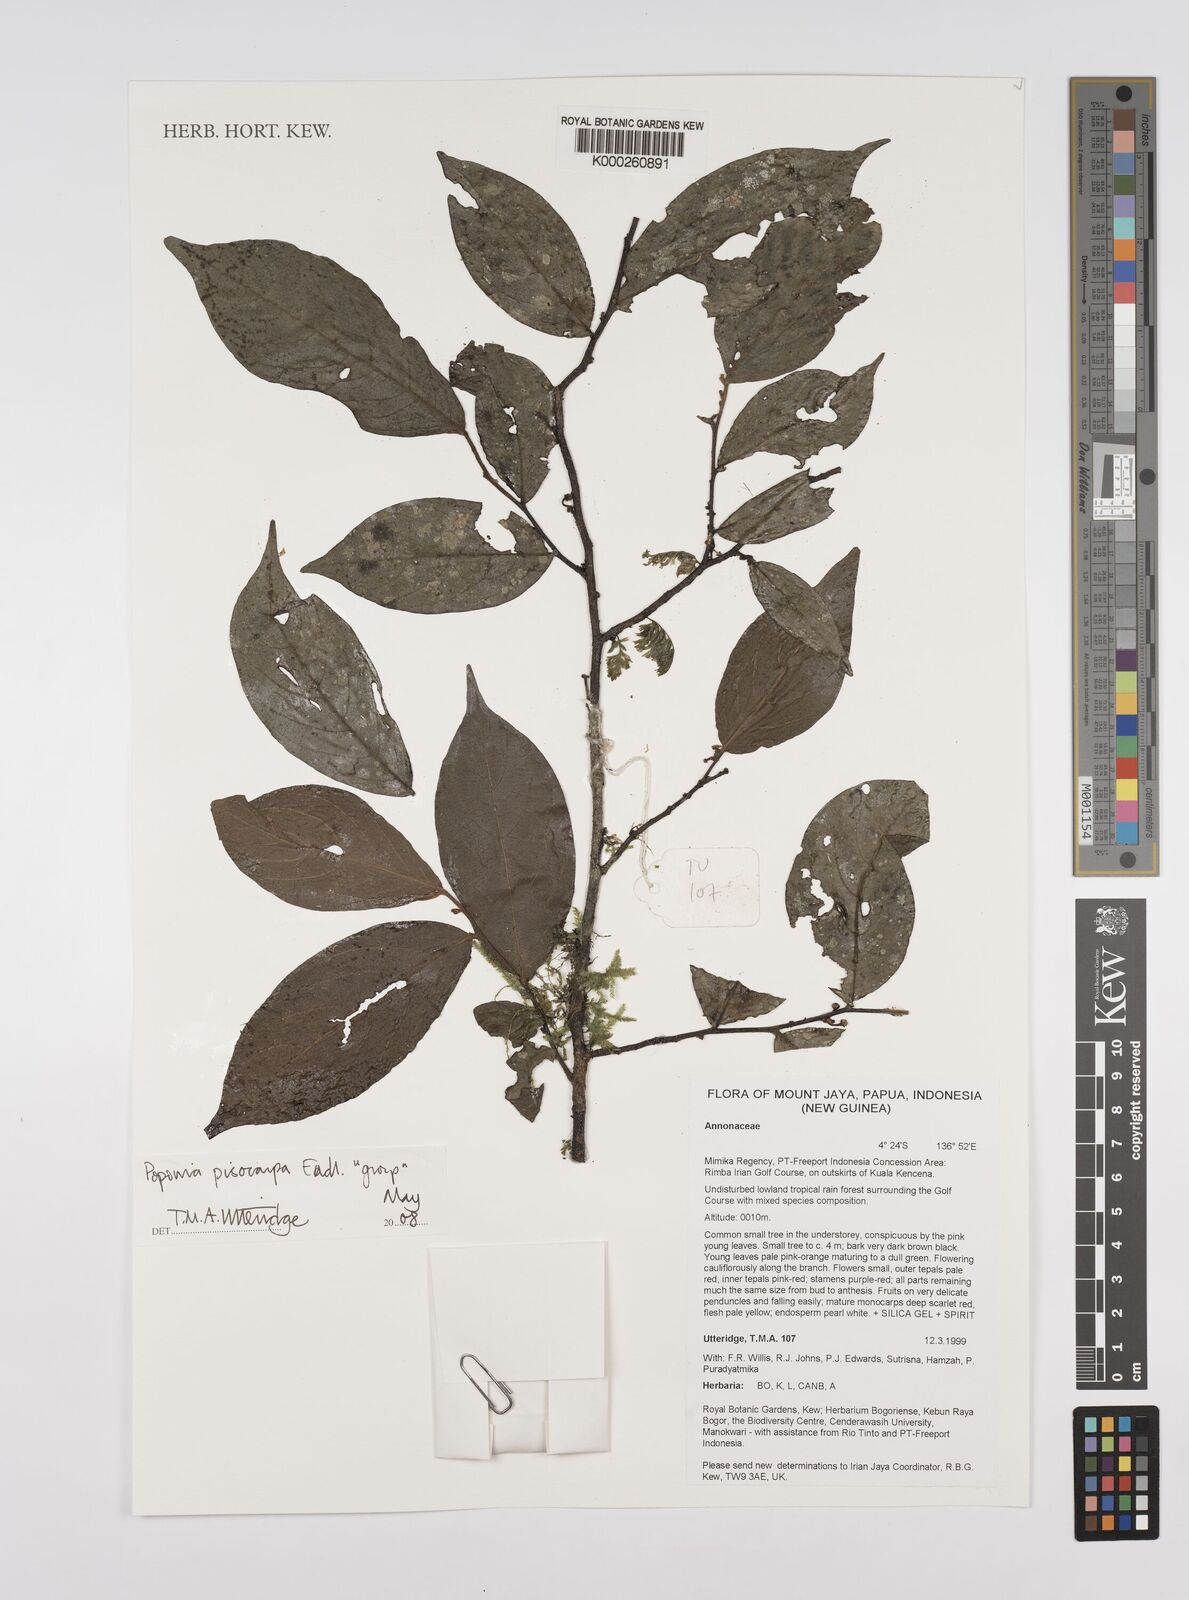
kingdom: Plantae
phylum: Tracheophyta
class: Magnoliopsida
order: Magnoliales
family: Annonaceae
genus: Popowia
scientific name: Popowia
